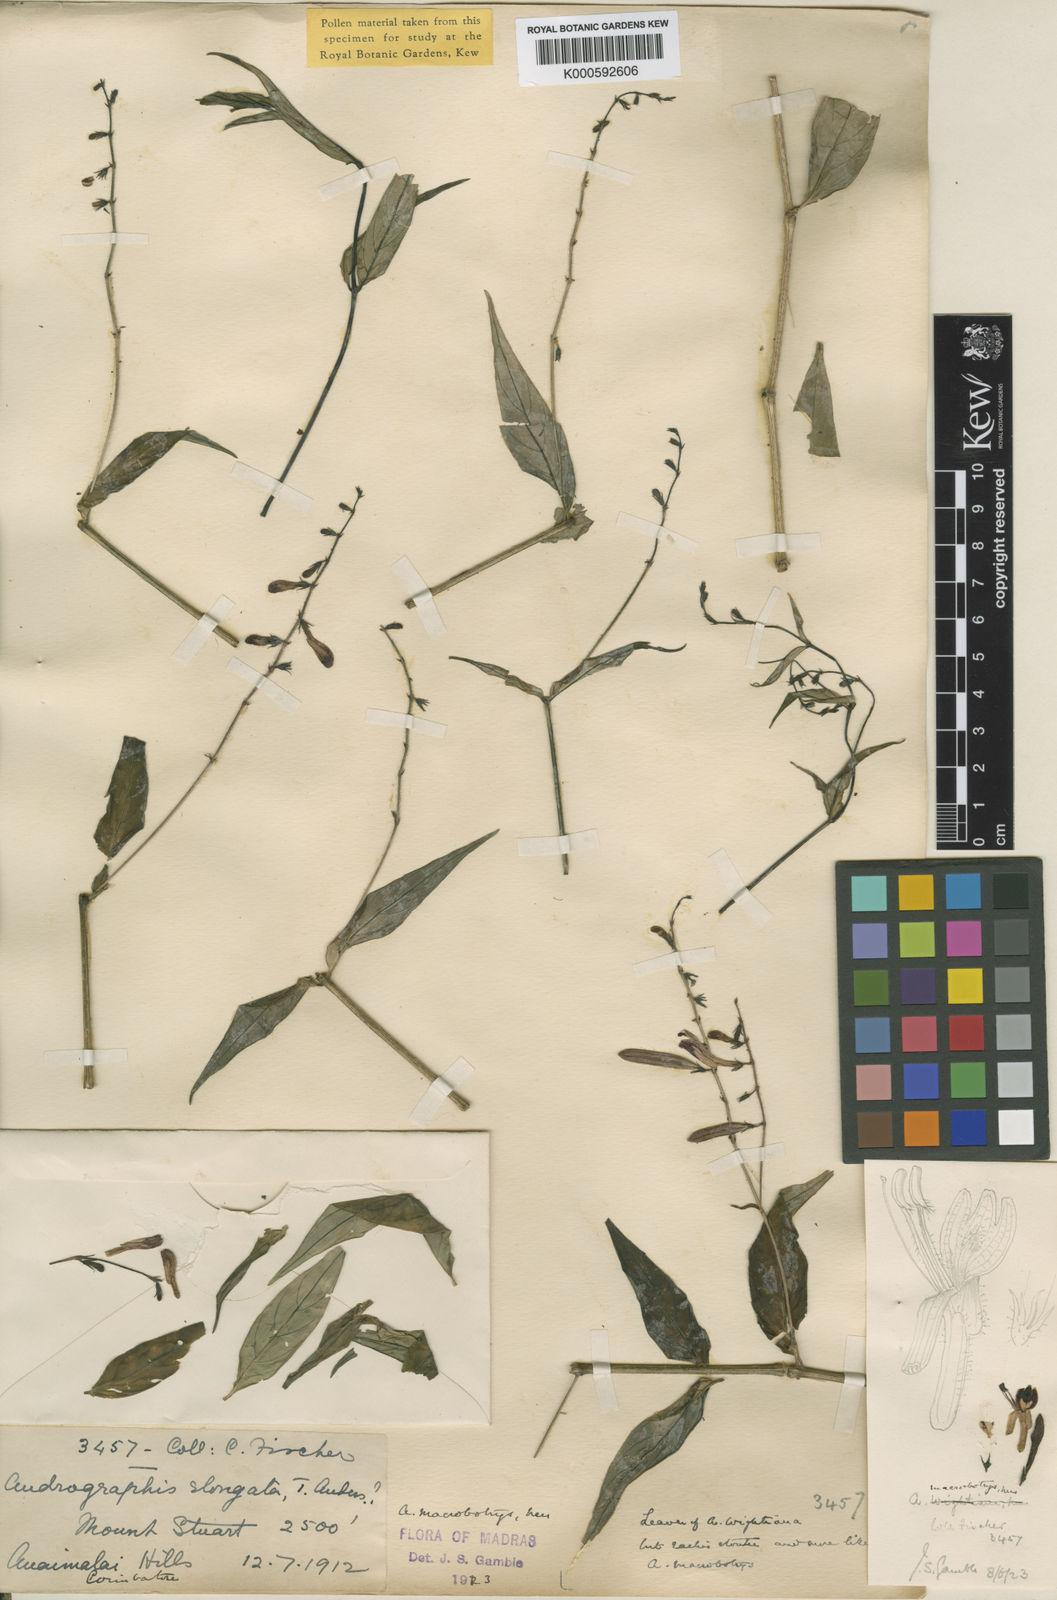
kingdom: Plantae
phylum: Tracheophyta
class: Magnoliopsida
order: Lamiales
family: Acanthaceae
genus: Andrographis
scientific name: Andrographis macrobotrys
